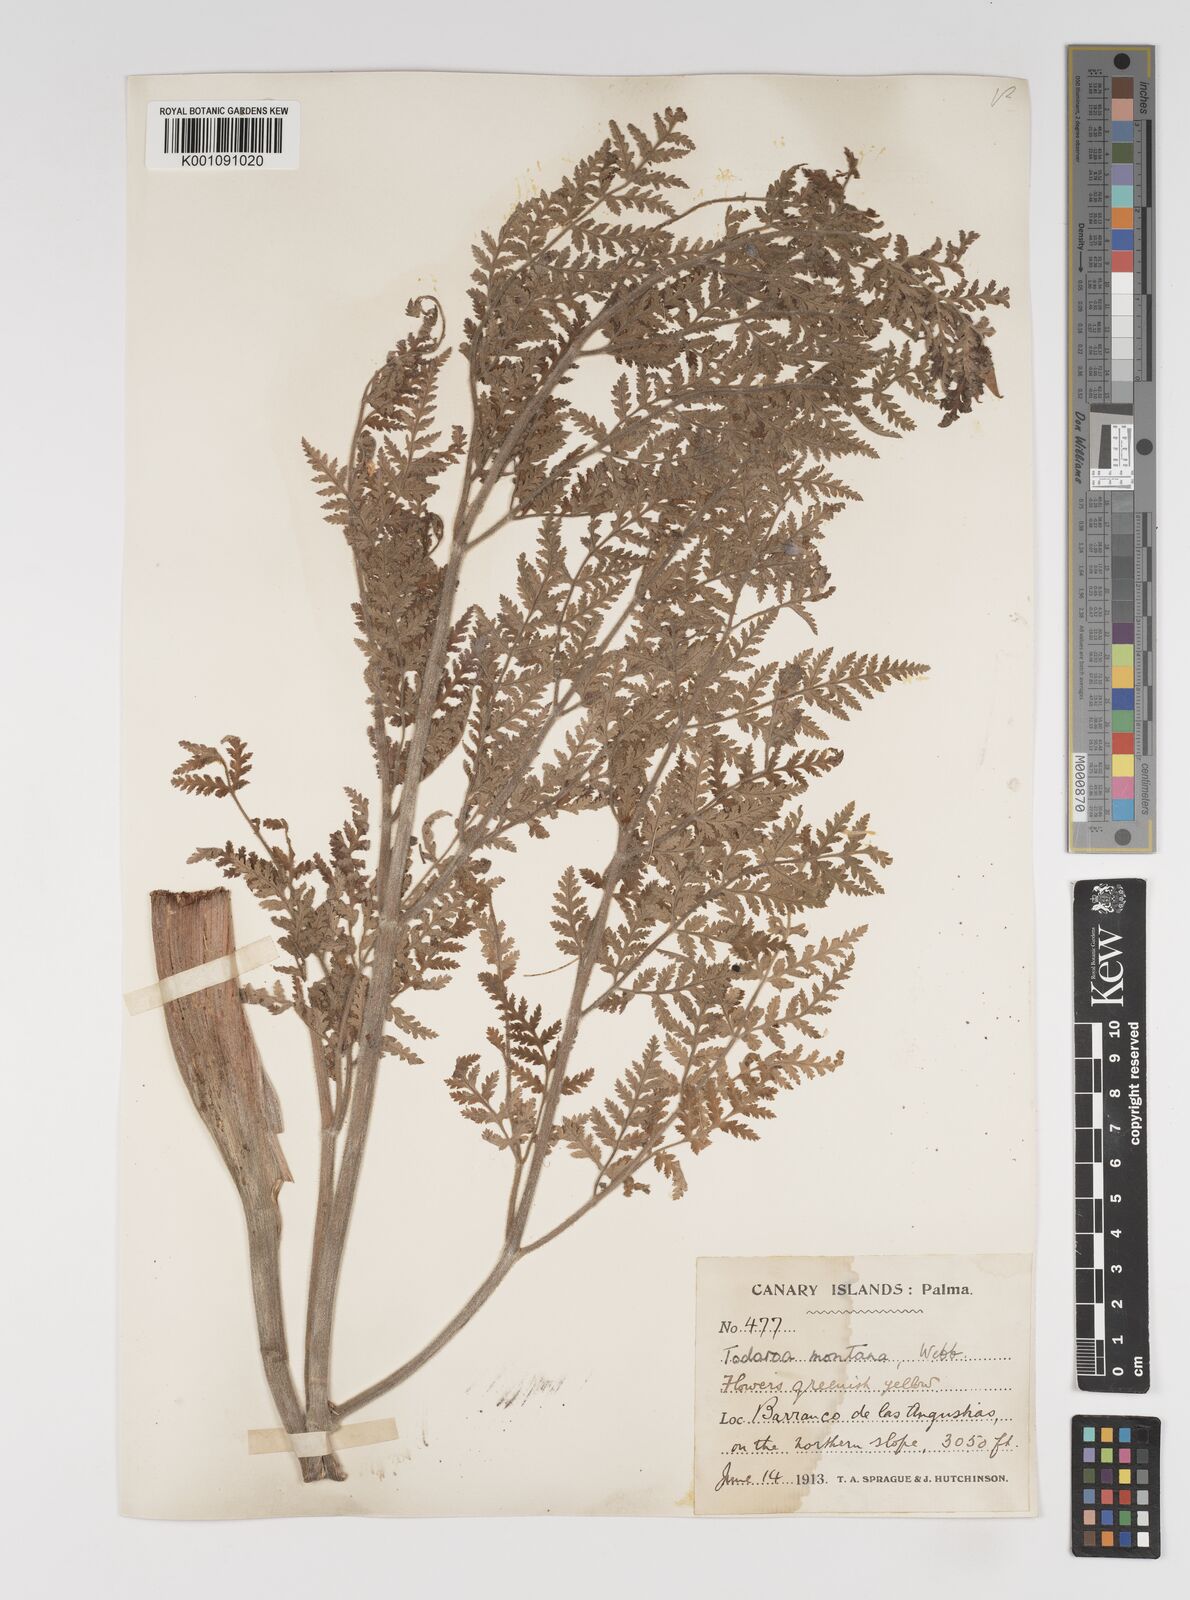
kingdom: Plantae
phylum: Tracheophyta
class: Magnoliopsida
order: Apiales
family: Apiaceae
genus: Athamanta
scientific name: Athamanta montana
